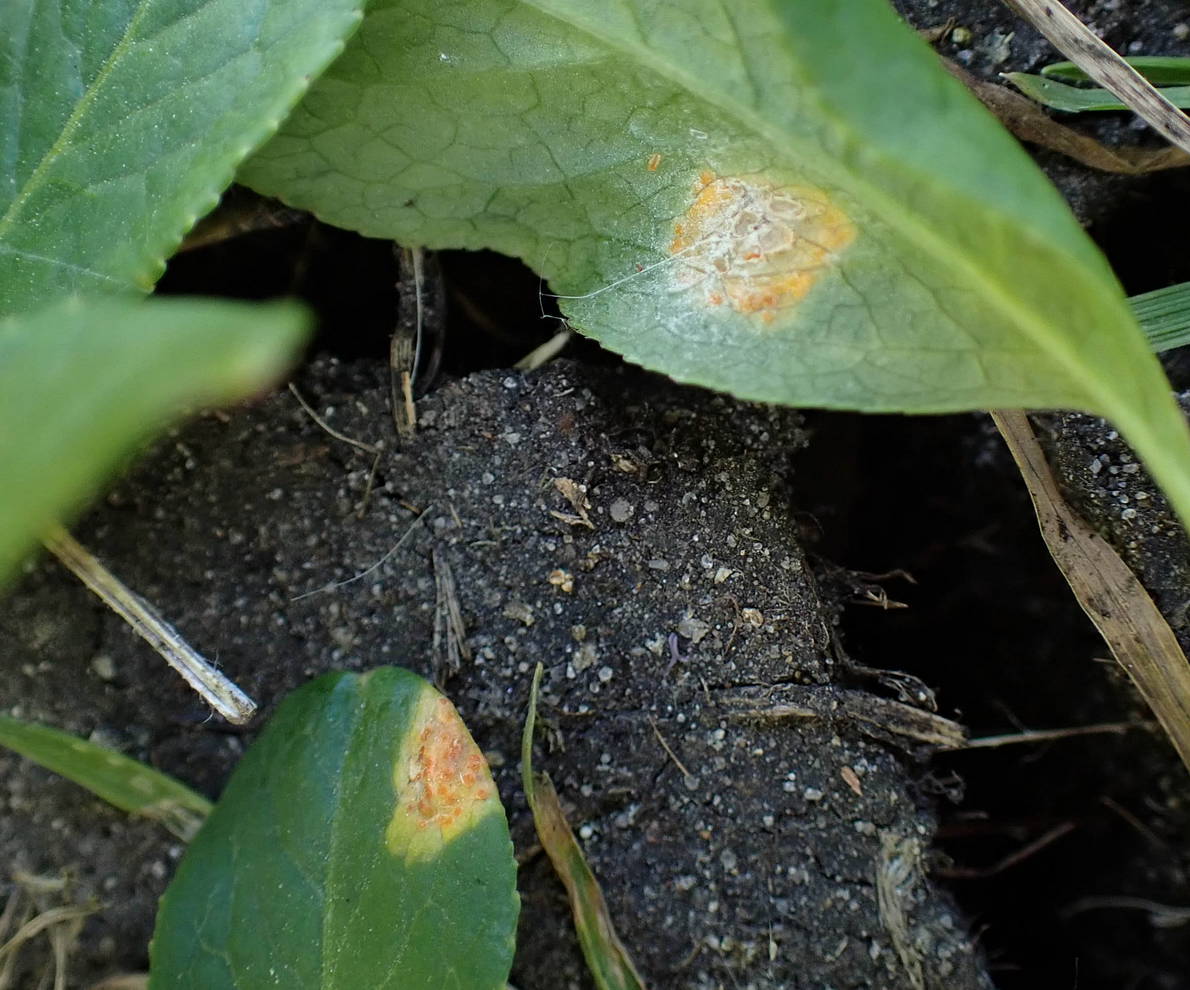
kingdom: Fungi
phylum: Basidiomycota
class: Pucciniomycetes
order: Pucciniales
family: Melampsoraceae
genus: Melampsora
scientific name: Melampsora epitea
